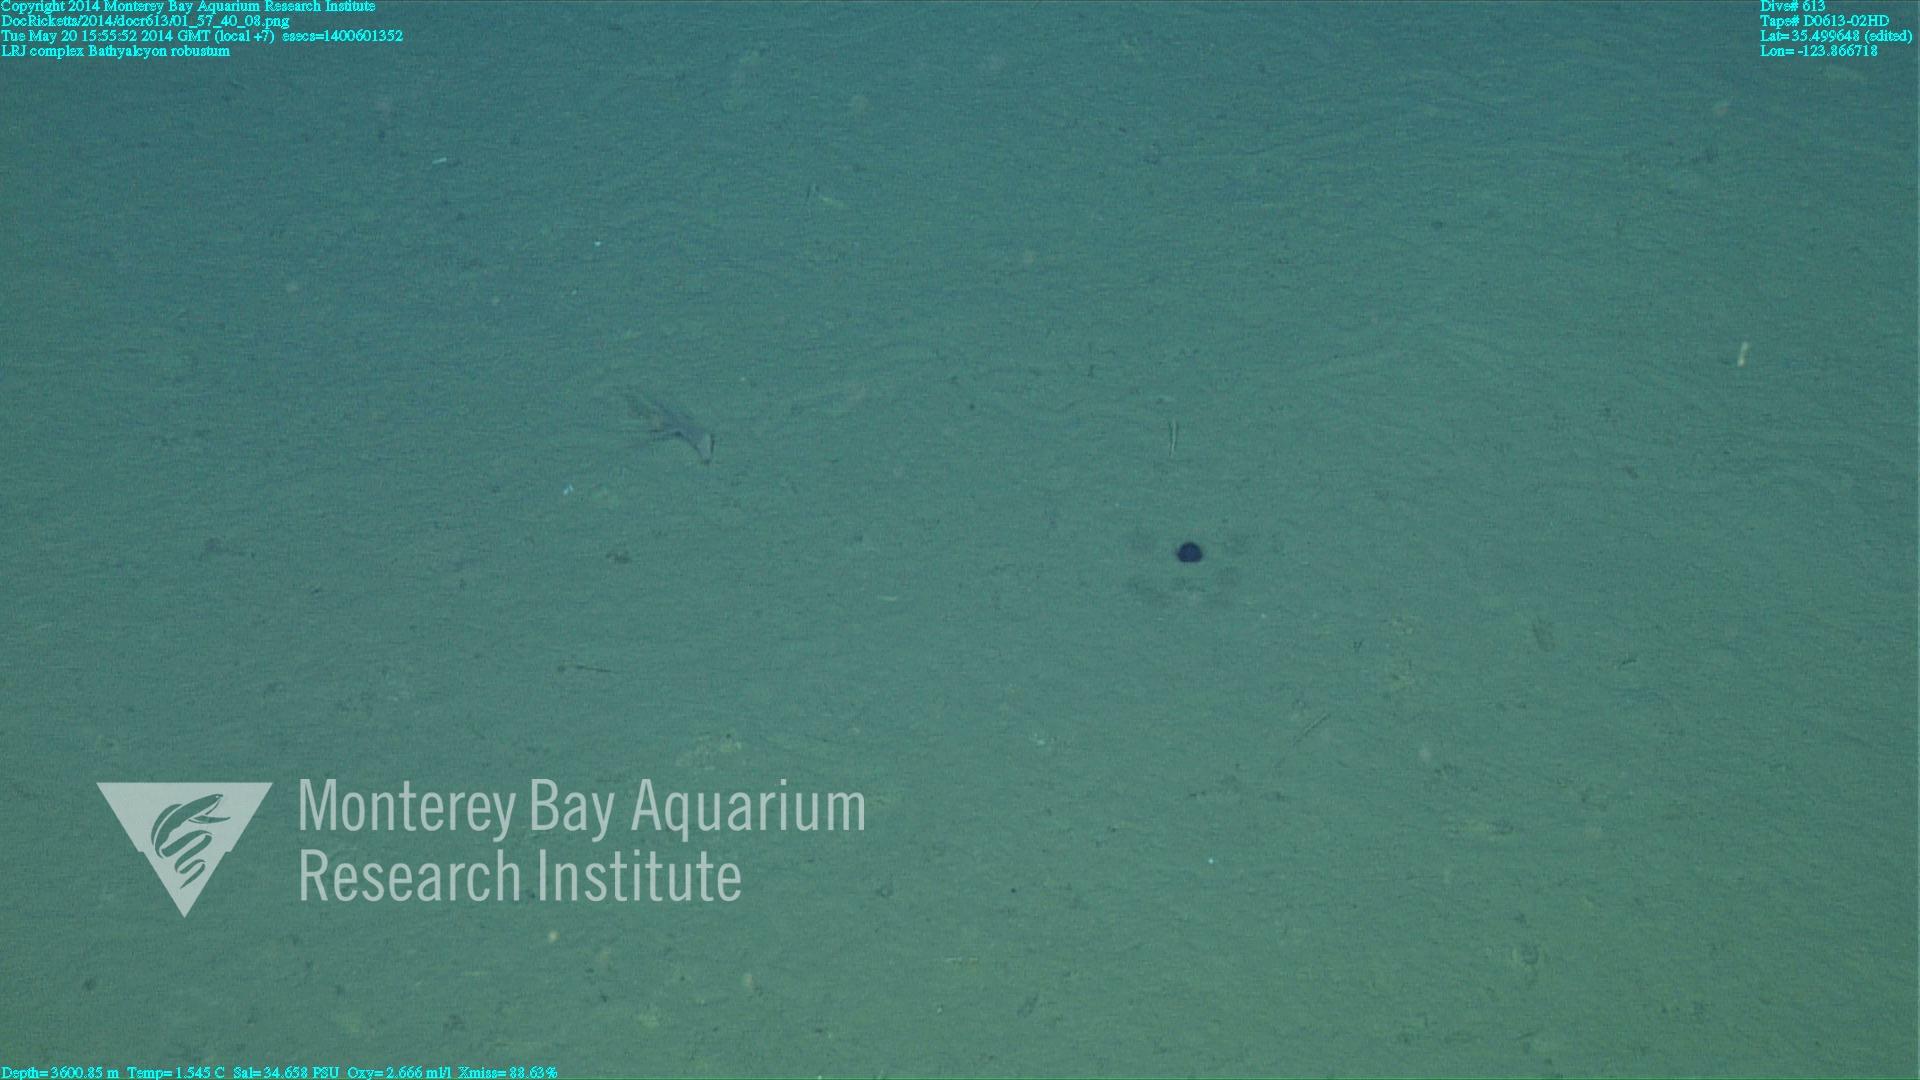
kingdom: Animalia
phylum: Cnidaria
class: Anthozoa
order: Scleralcyonacea
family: Coralliidae
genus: Bathyalcyon
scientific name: Bathyalcyon robustum
